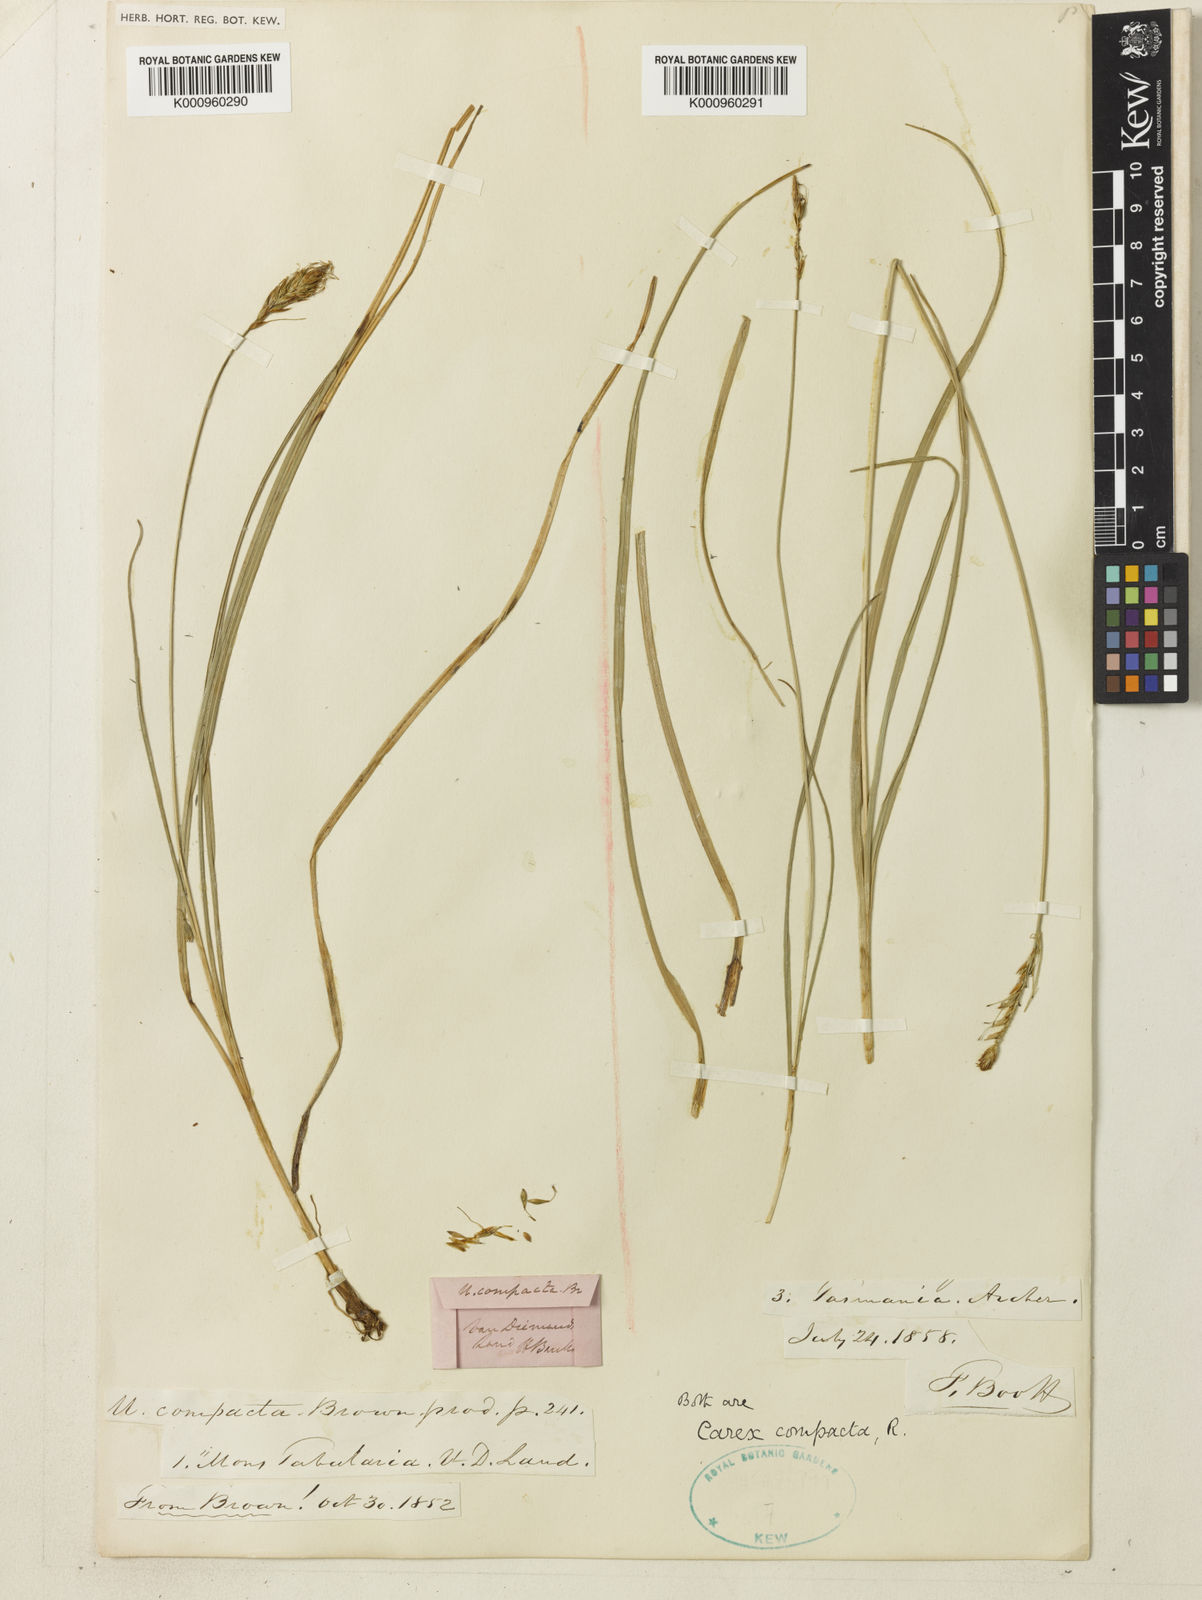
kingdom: Plantae
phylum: Tracheophyta
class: Liliopsida
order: Poales
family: Cyperaceae
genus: Carex
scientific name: Carex austrocompacta
